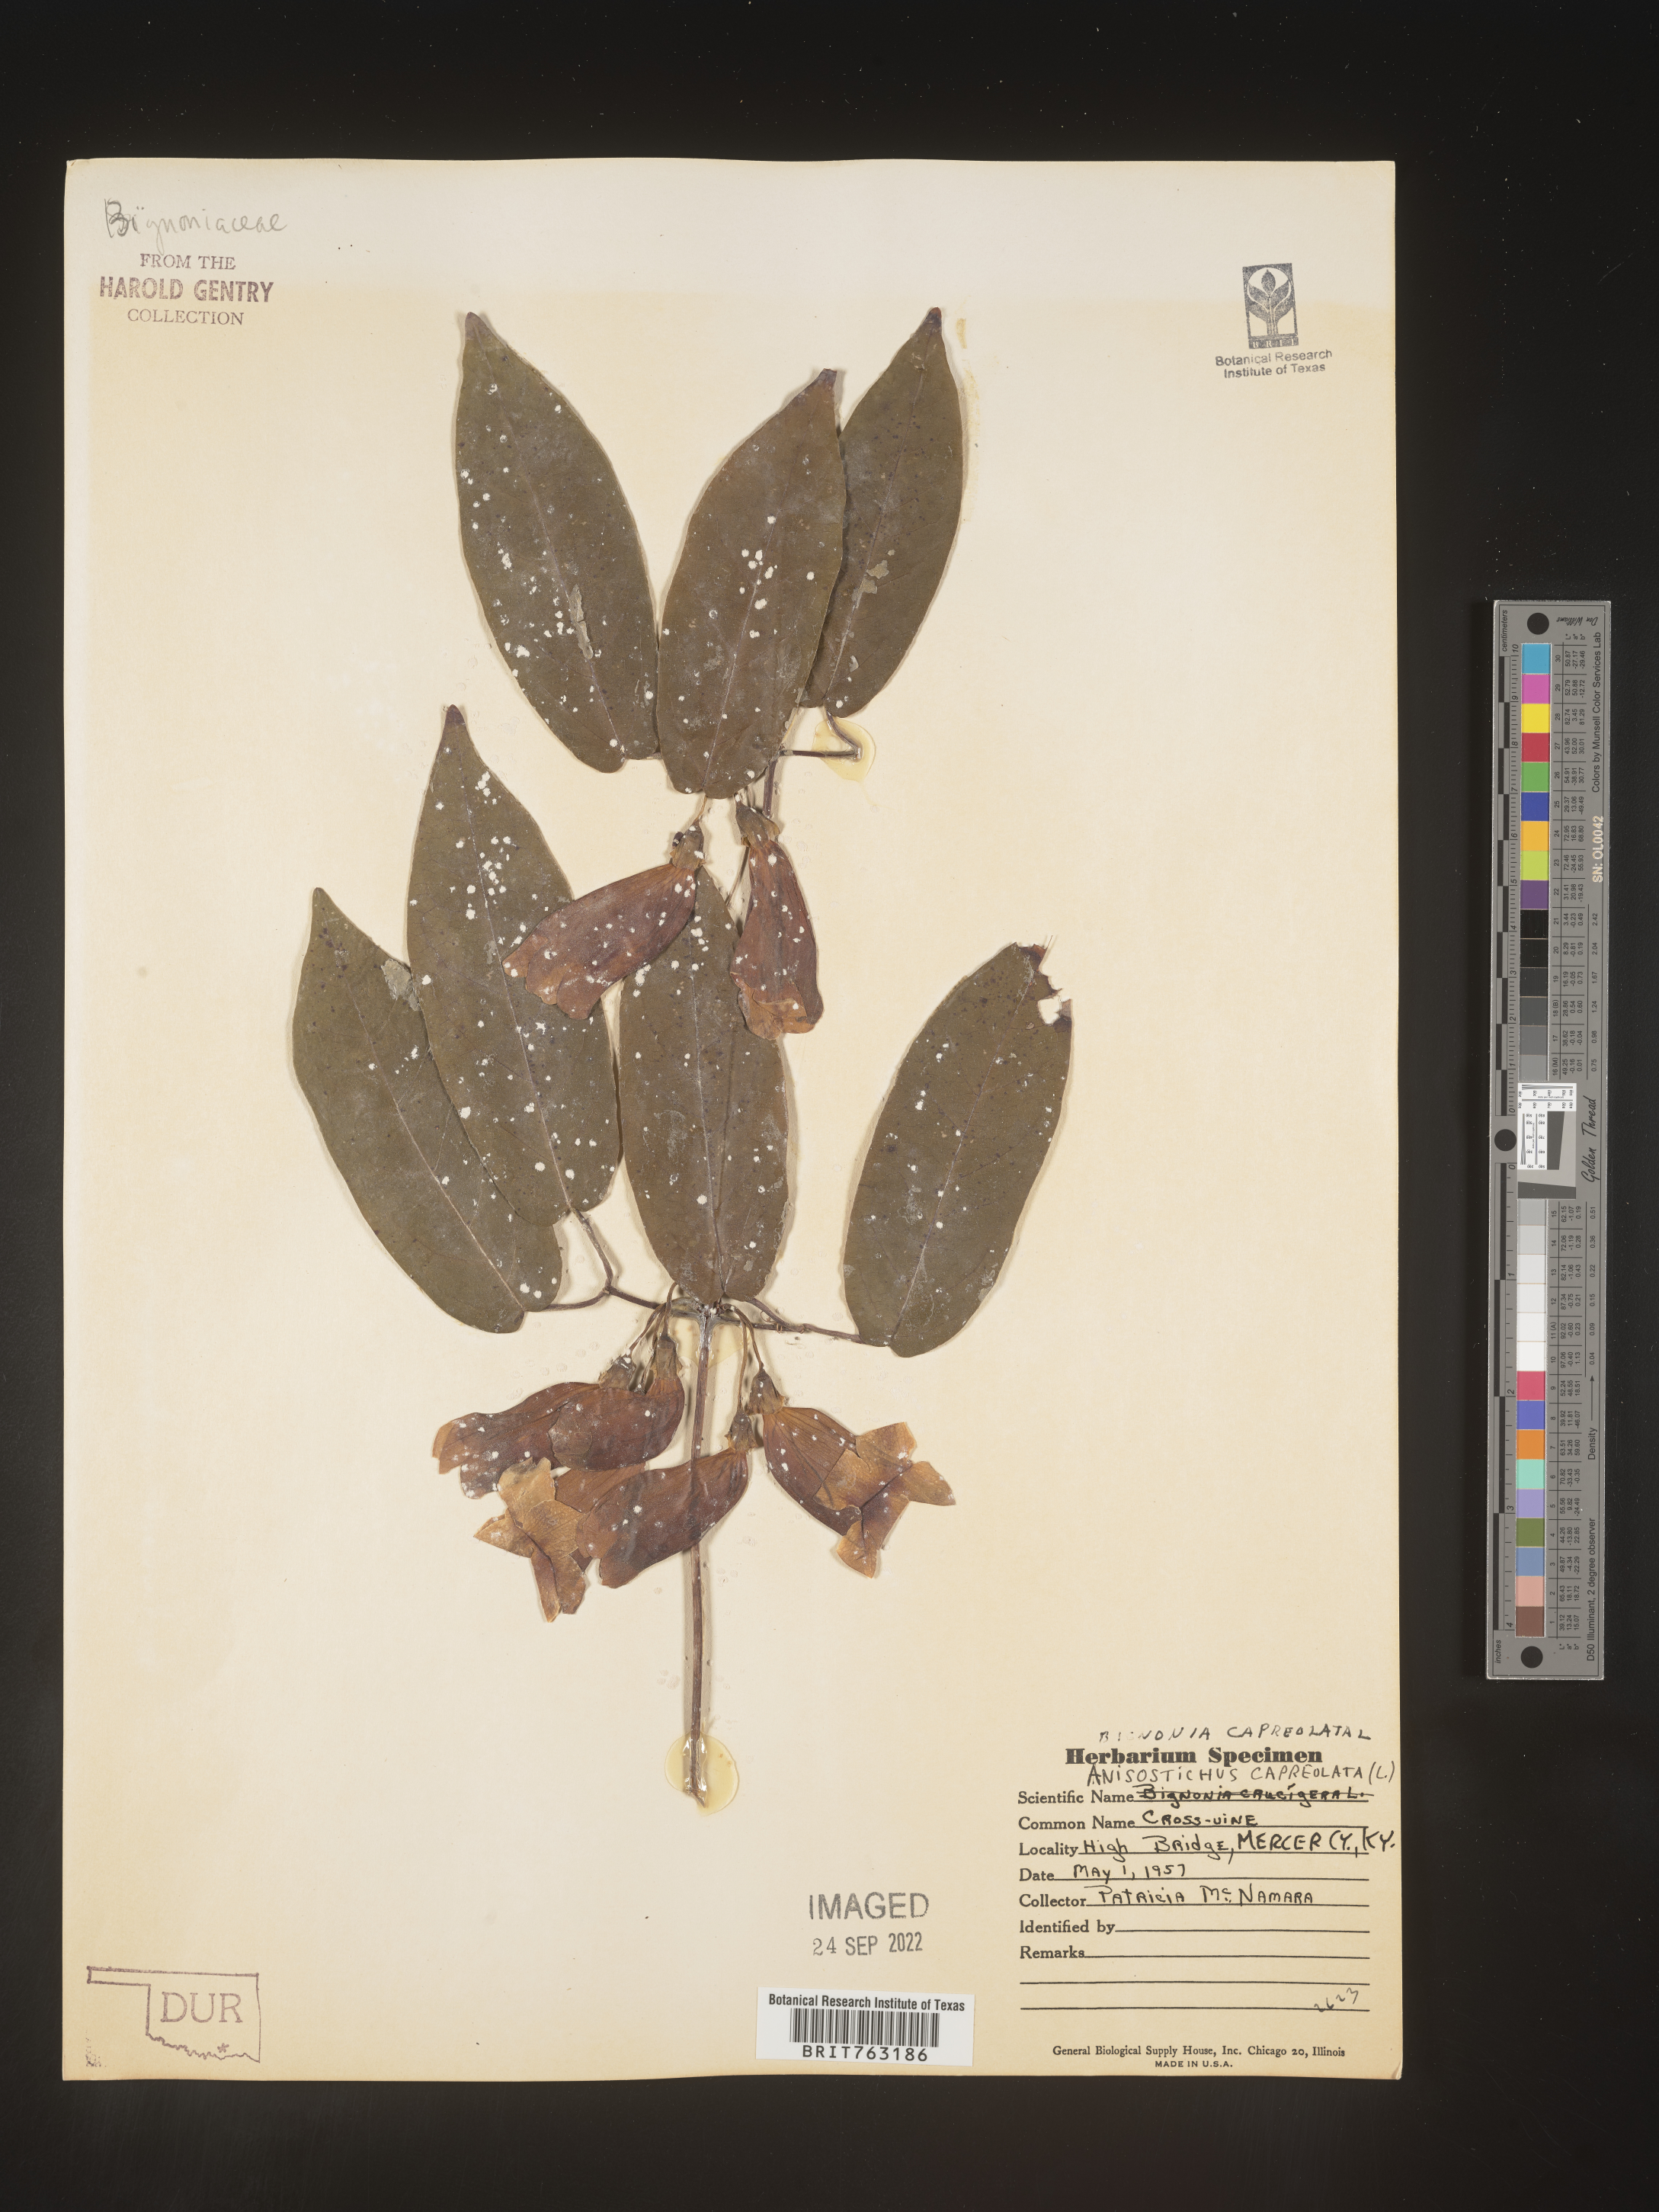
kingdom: Plantae
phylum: Tracheophyta
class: Magnoliopsida
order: Lamiales
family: Bignoniaceae
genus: Bignonia
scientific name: Bignonia capreolata
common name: Crossvine
